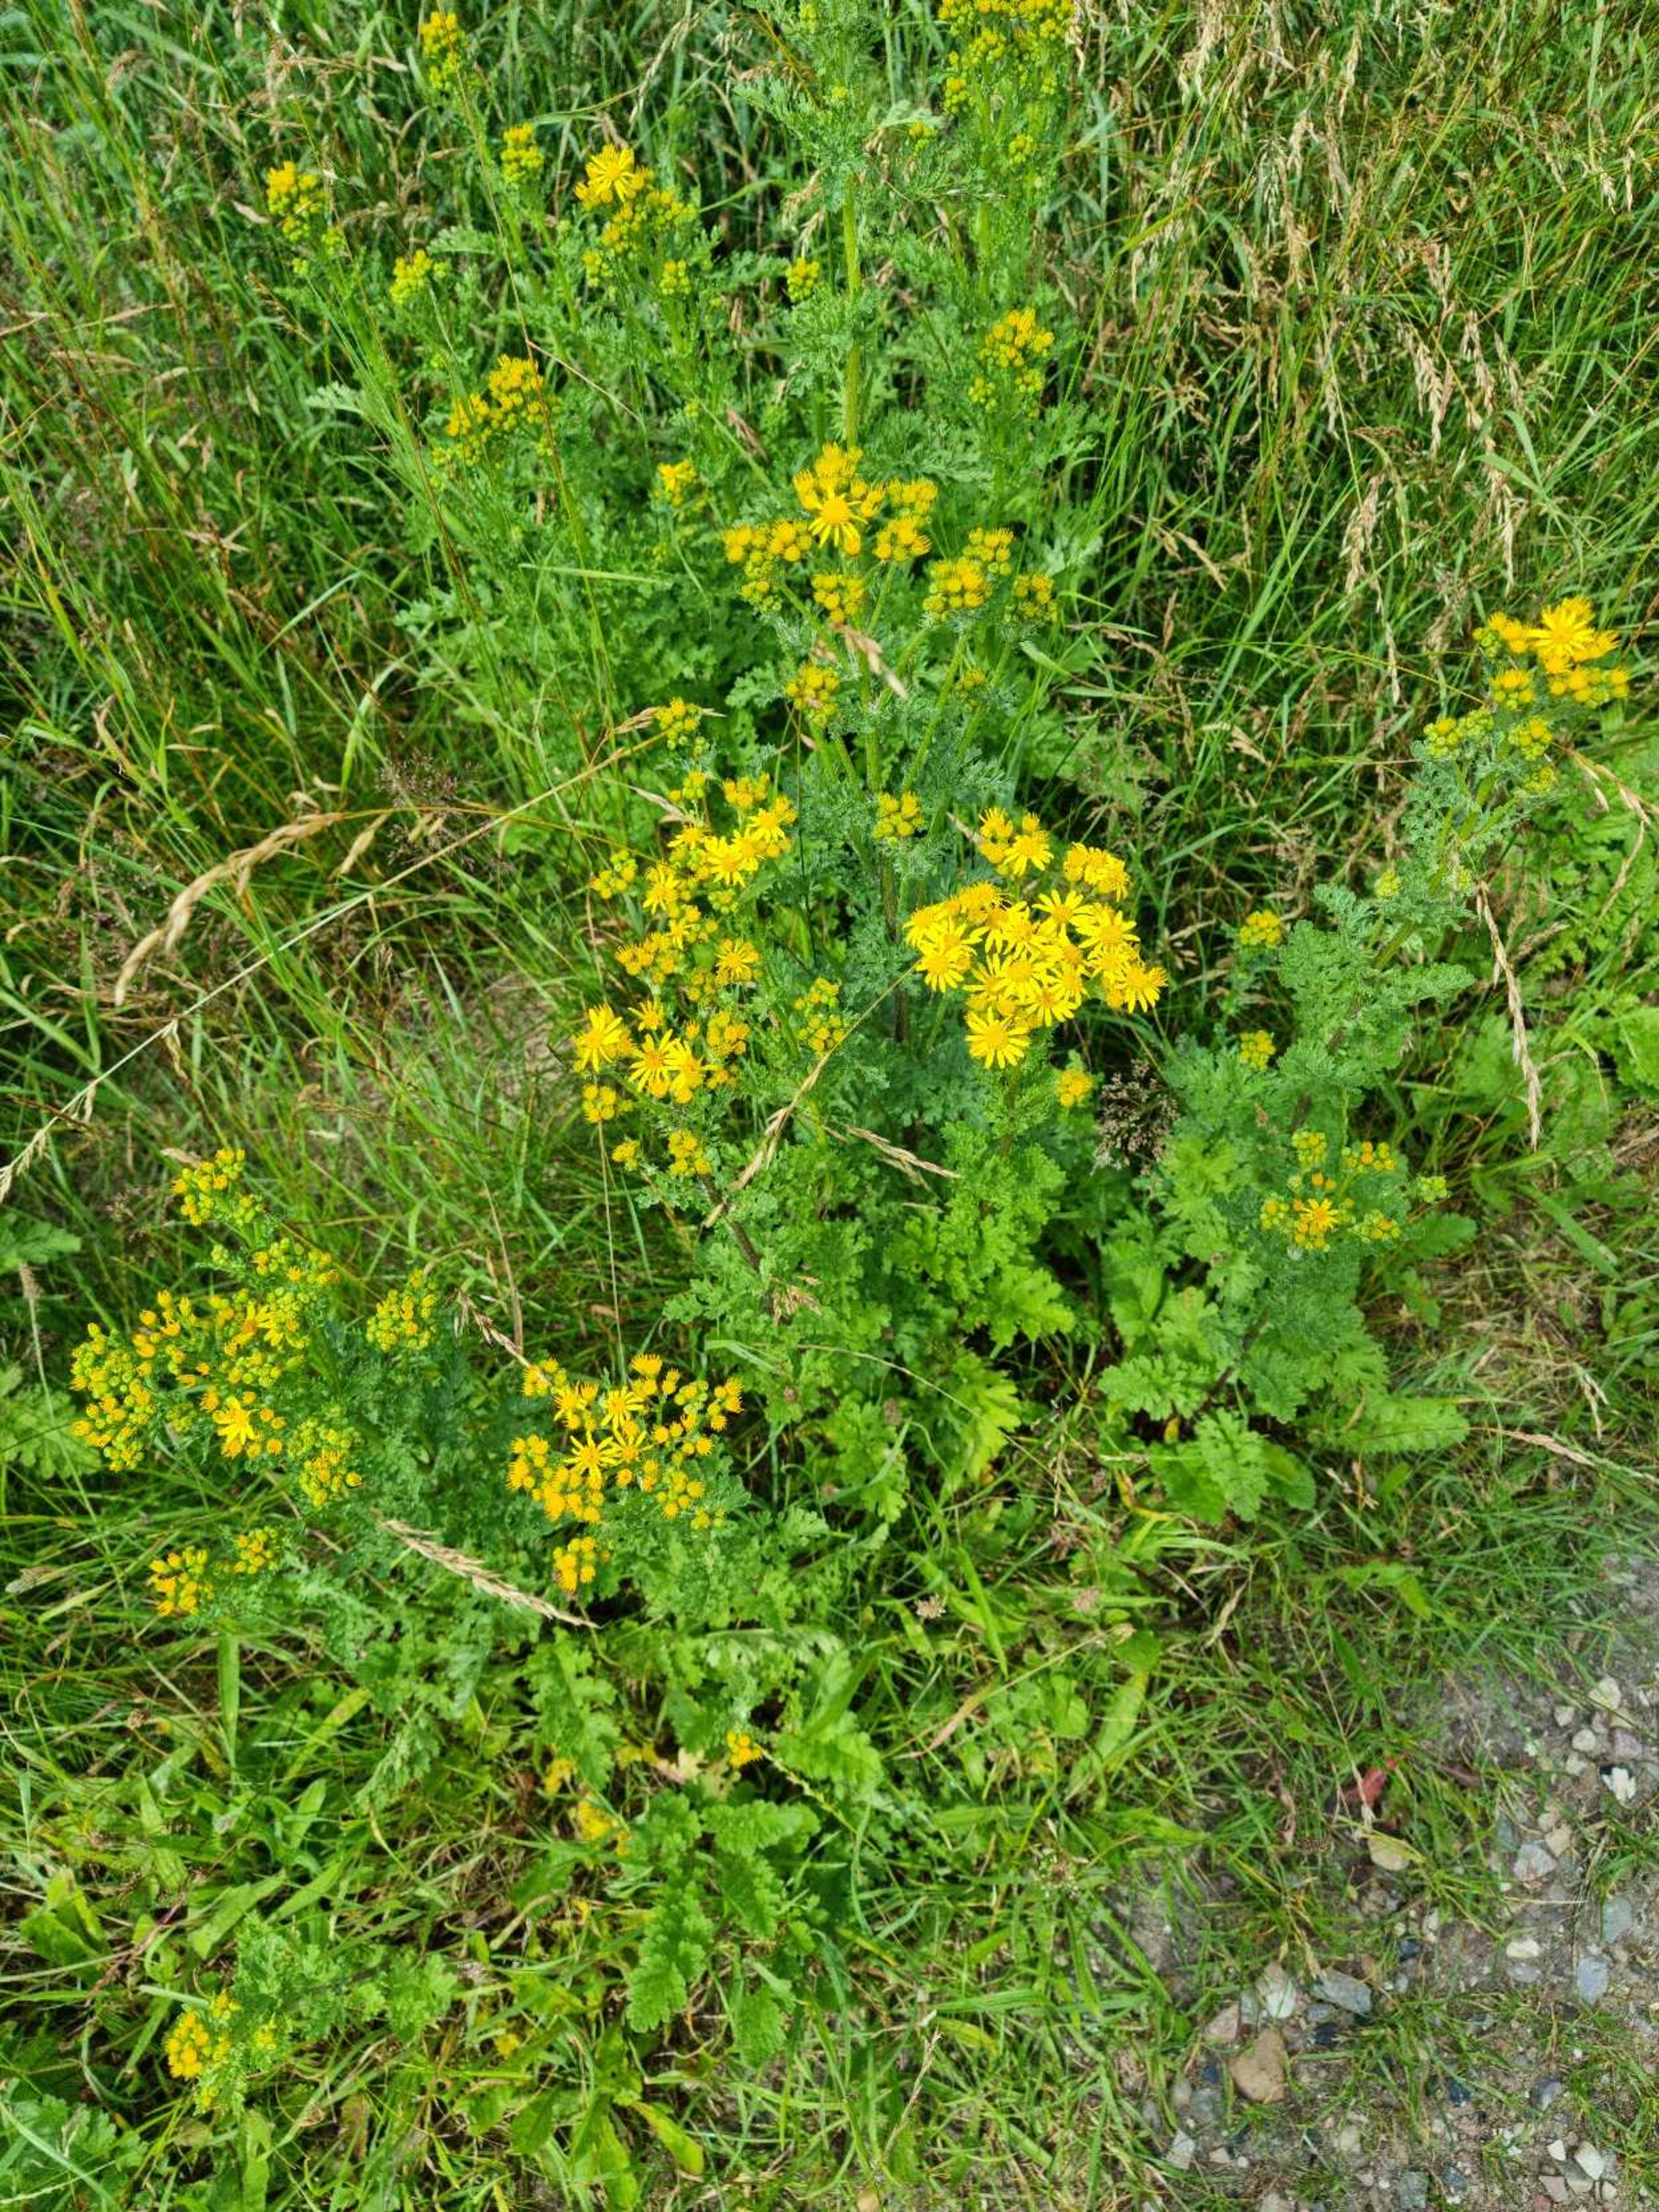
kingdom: Plantae
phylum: Tracheophyta
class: Magnoliopsida
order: Asterales
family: Asteraceae
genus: Jacobaea
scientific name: Jacobaea vulgaris
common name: Eng-brandbæger
